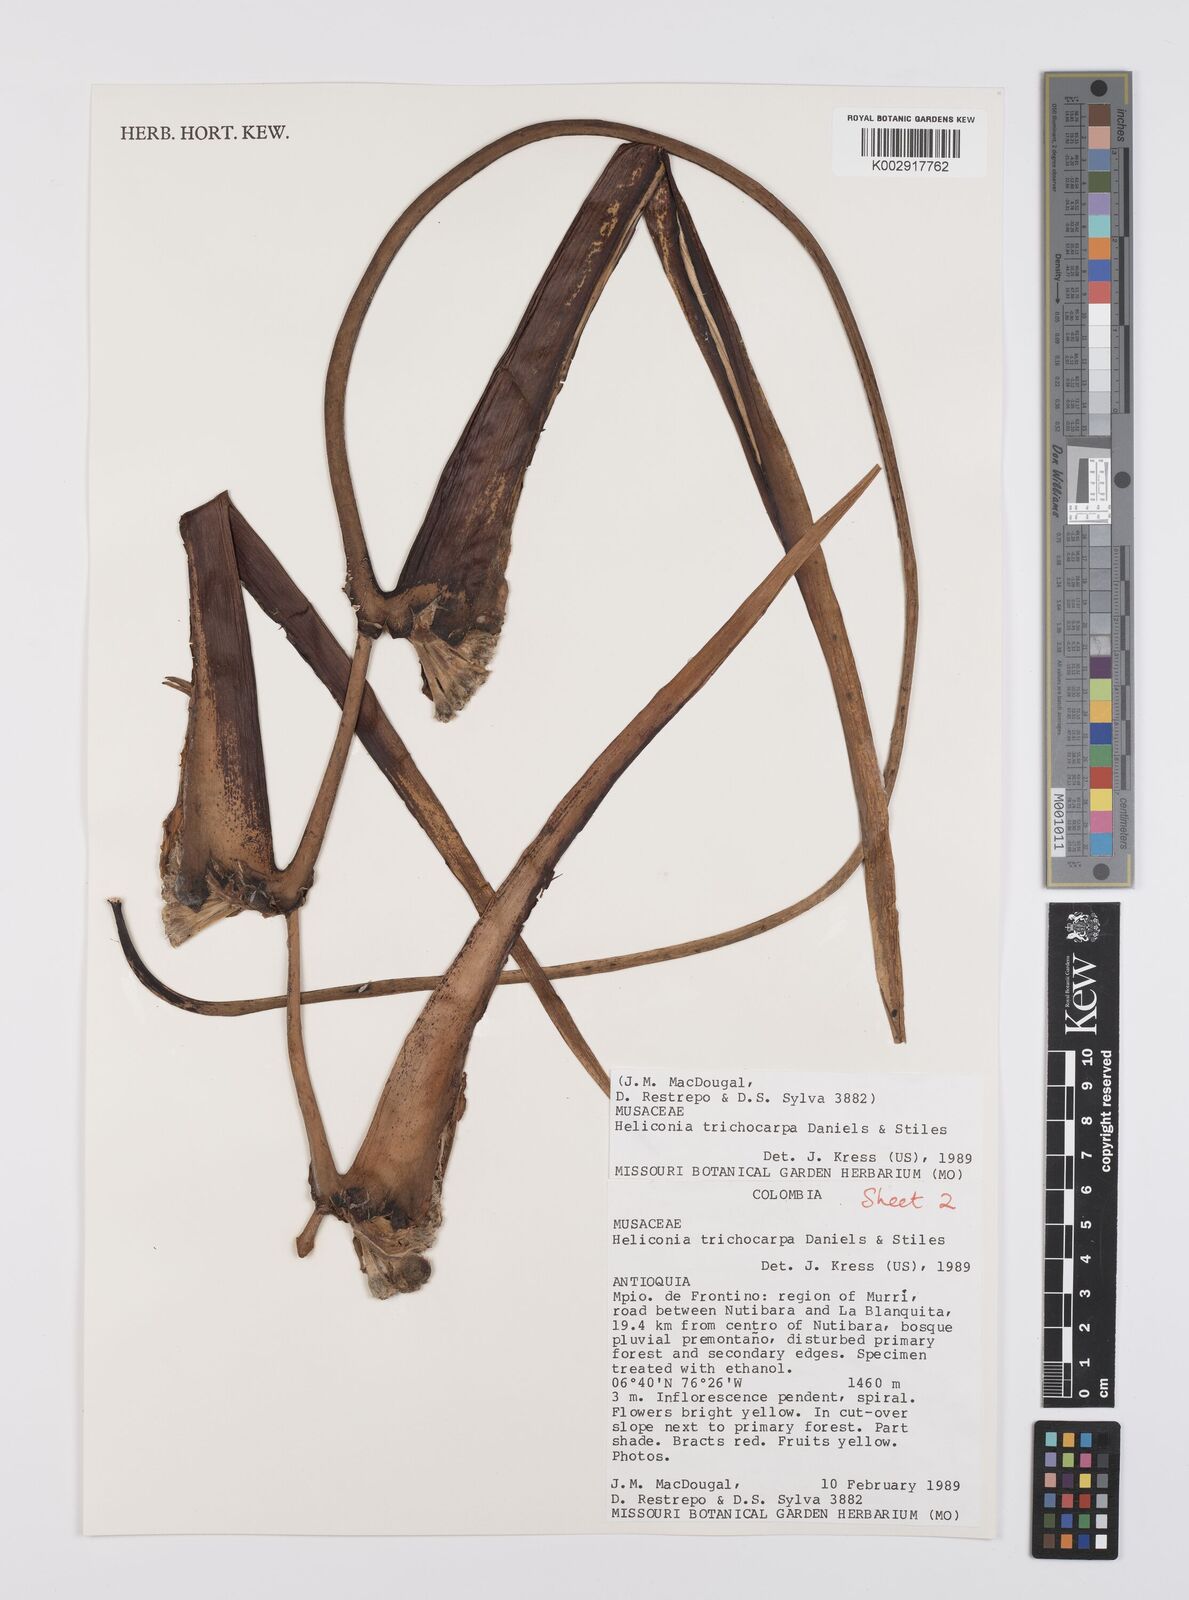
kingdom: Plantae
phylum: Tracheophyta
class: Liliopsida
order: Zingiberales
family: Heliconiaceae
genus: Heliconia
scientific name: Heliconia trichocarpa
